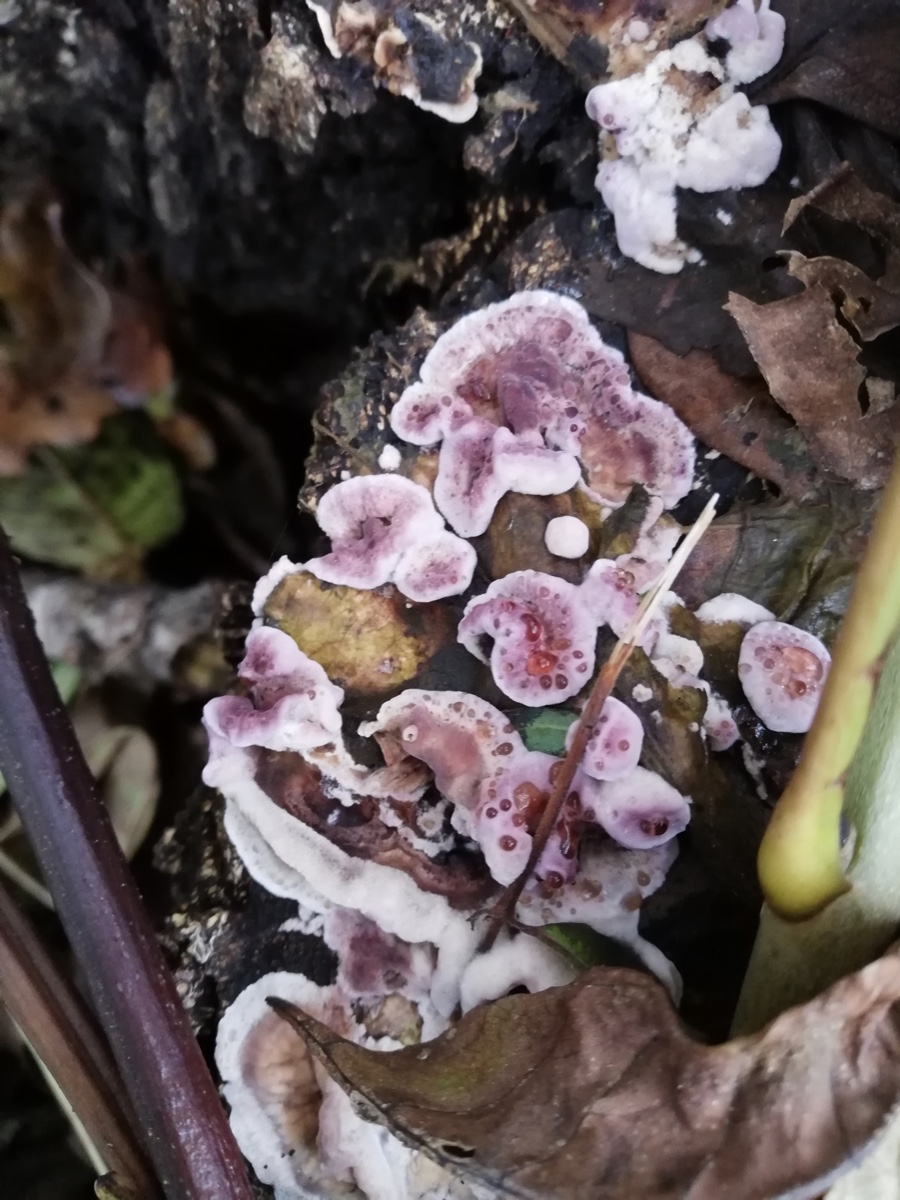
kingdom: Fungi
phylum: Basidiomycota
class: Agaricomycetes
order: Agaricales
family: Cyphellaceae
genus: Chondrostereum
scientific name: Chondrostereum purpureum
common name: purpurlædersvamp
